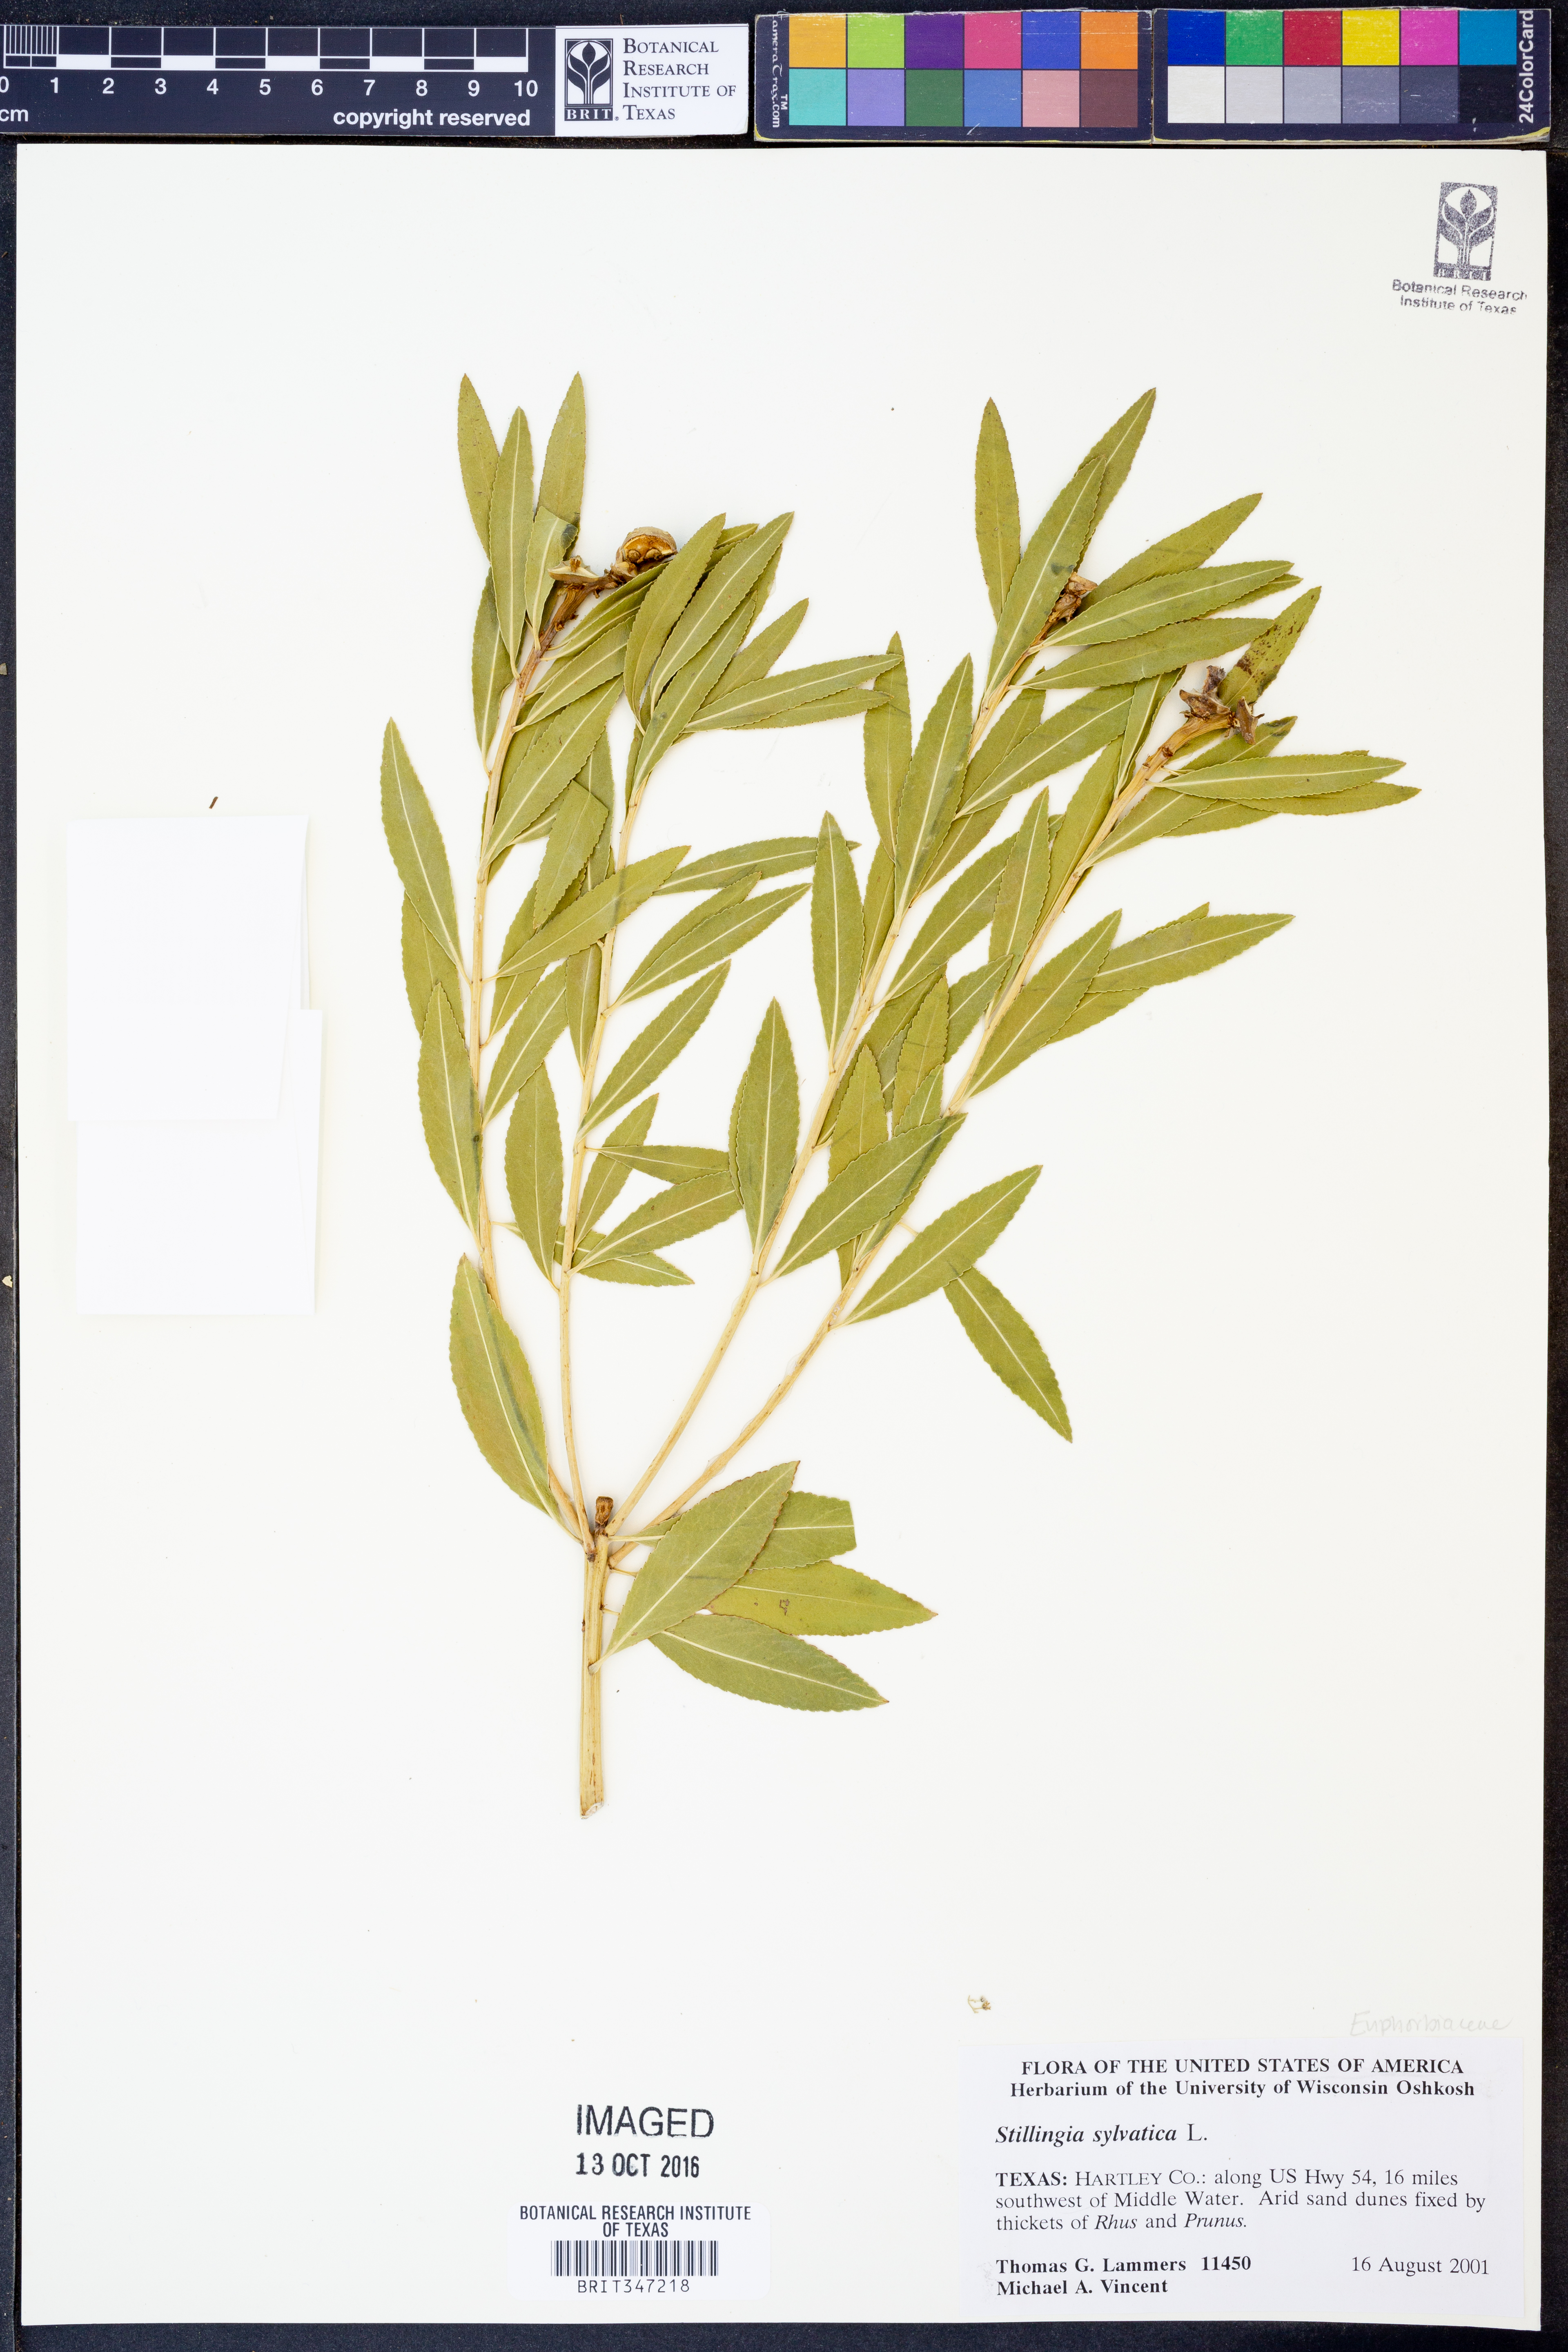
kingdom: Plantae
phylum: Tracheophyta
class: Magnoliopsida
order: Malpighiales
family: Euphorbiaceae
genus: Stillingia
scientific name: Stillingia sylvatica
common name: Queen's-delight
